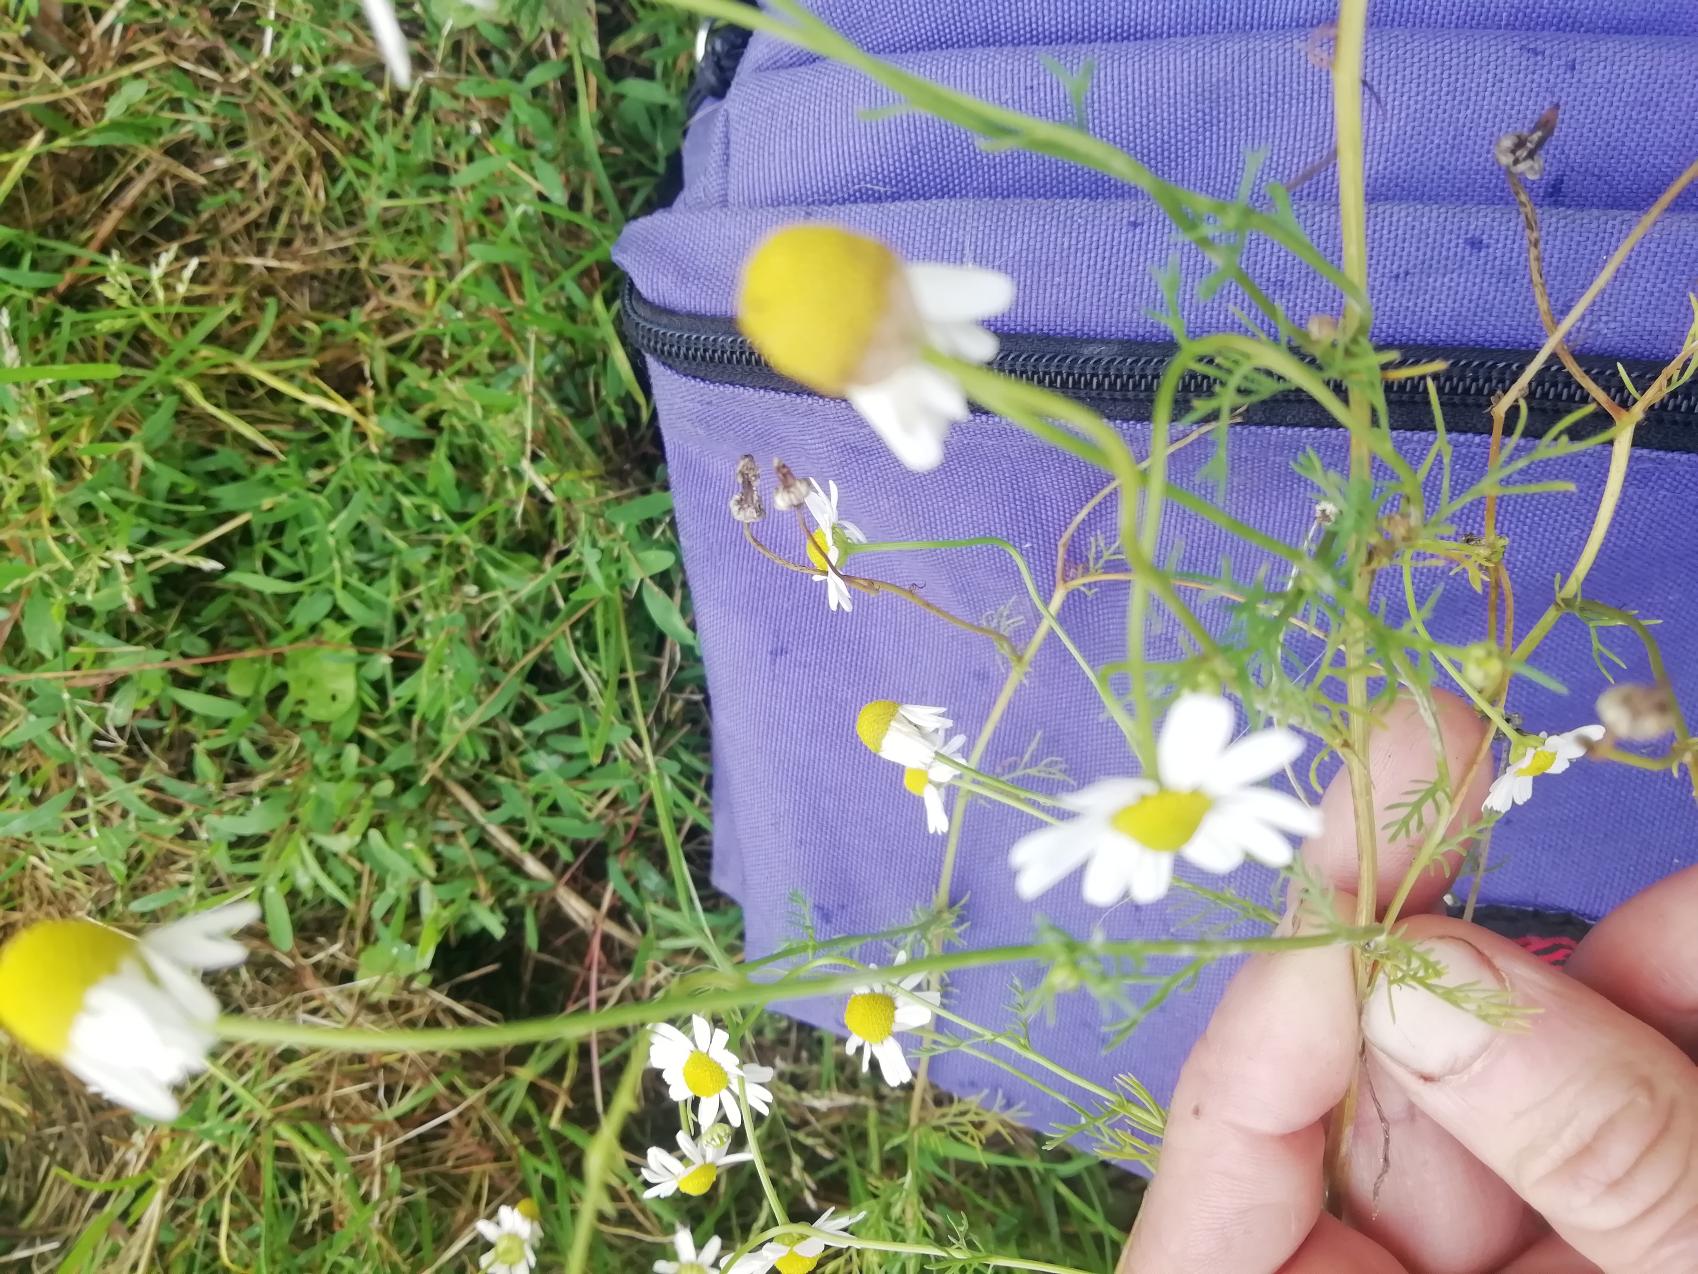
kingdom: Plantae
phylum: Tracheophyta
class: Magnoliopsida
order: Asterales
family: Asteraceae
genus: Anthemis
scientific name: Anthemis
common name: Gåseurt (Anthemis-slægten)
